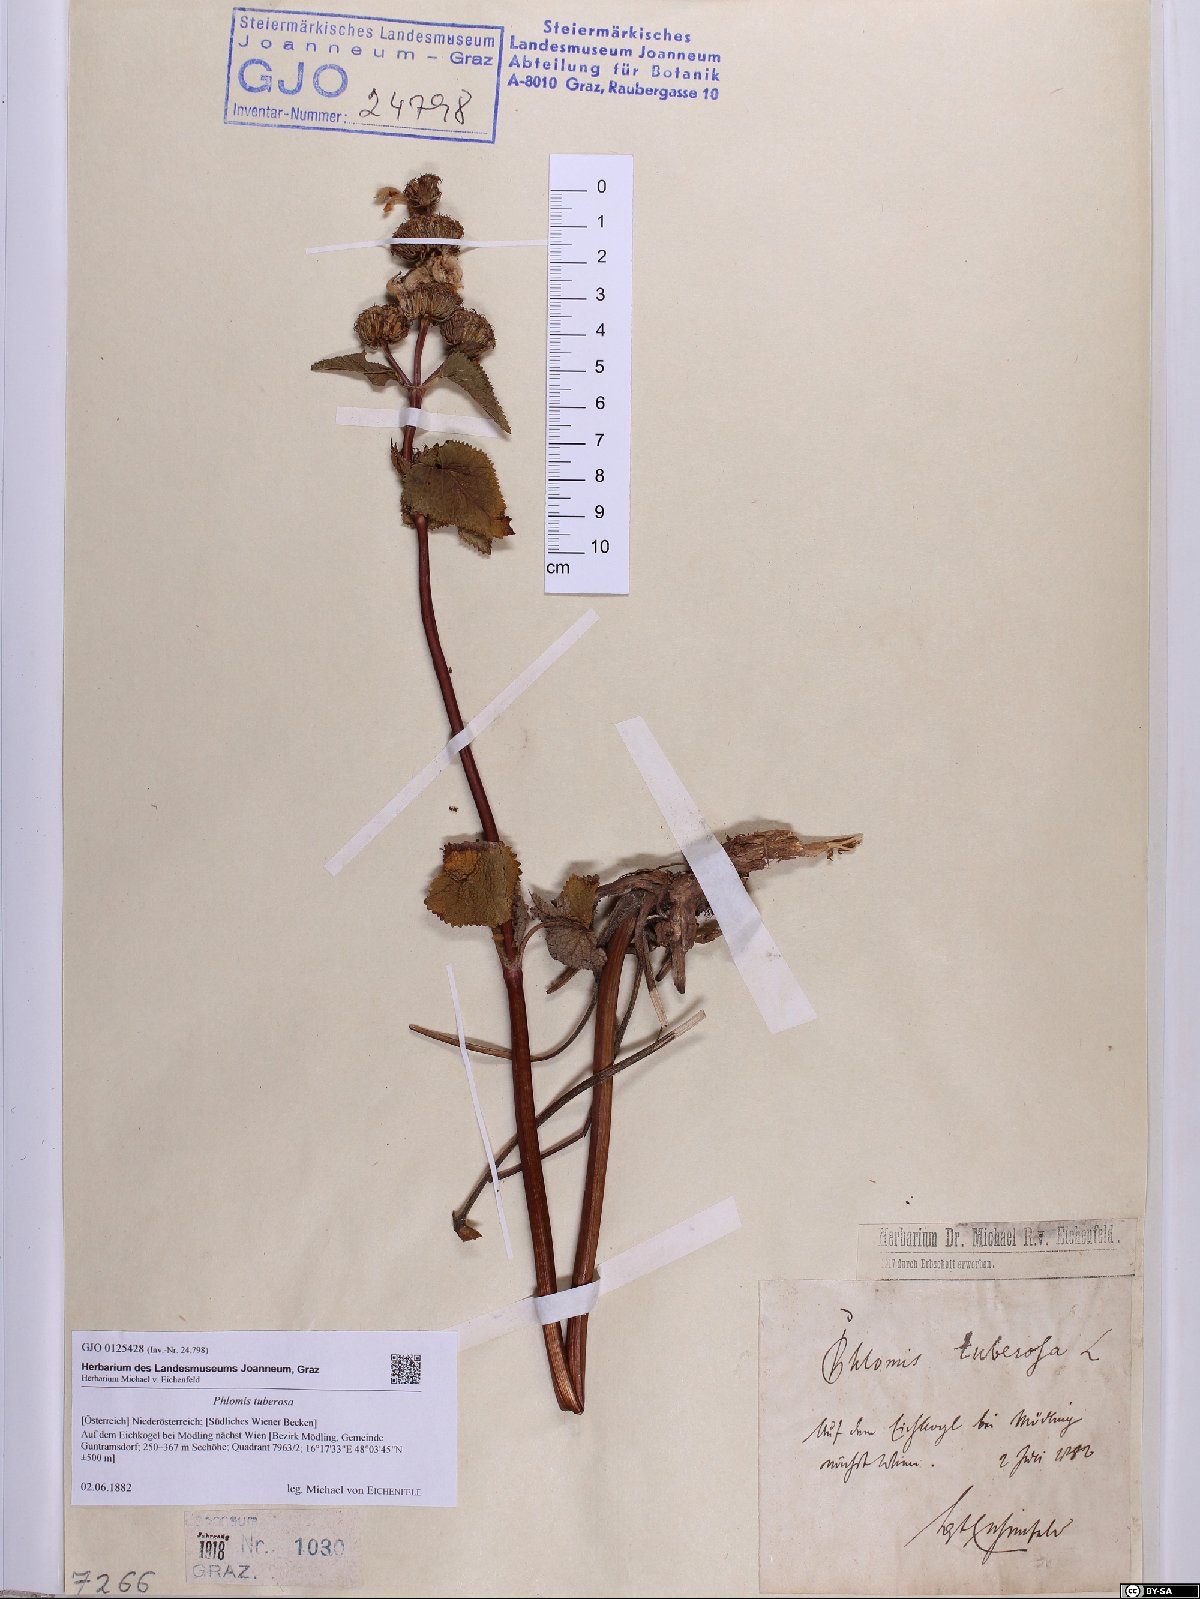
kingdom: Plantae
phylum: Tracheophyta
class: Magnoliopsida
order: Lamiales
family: Lamiaceae
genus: Phlomoides
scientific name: Phlomoides tuberosa
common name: Tuberous jerusalem sage
